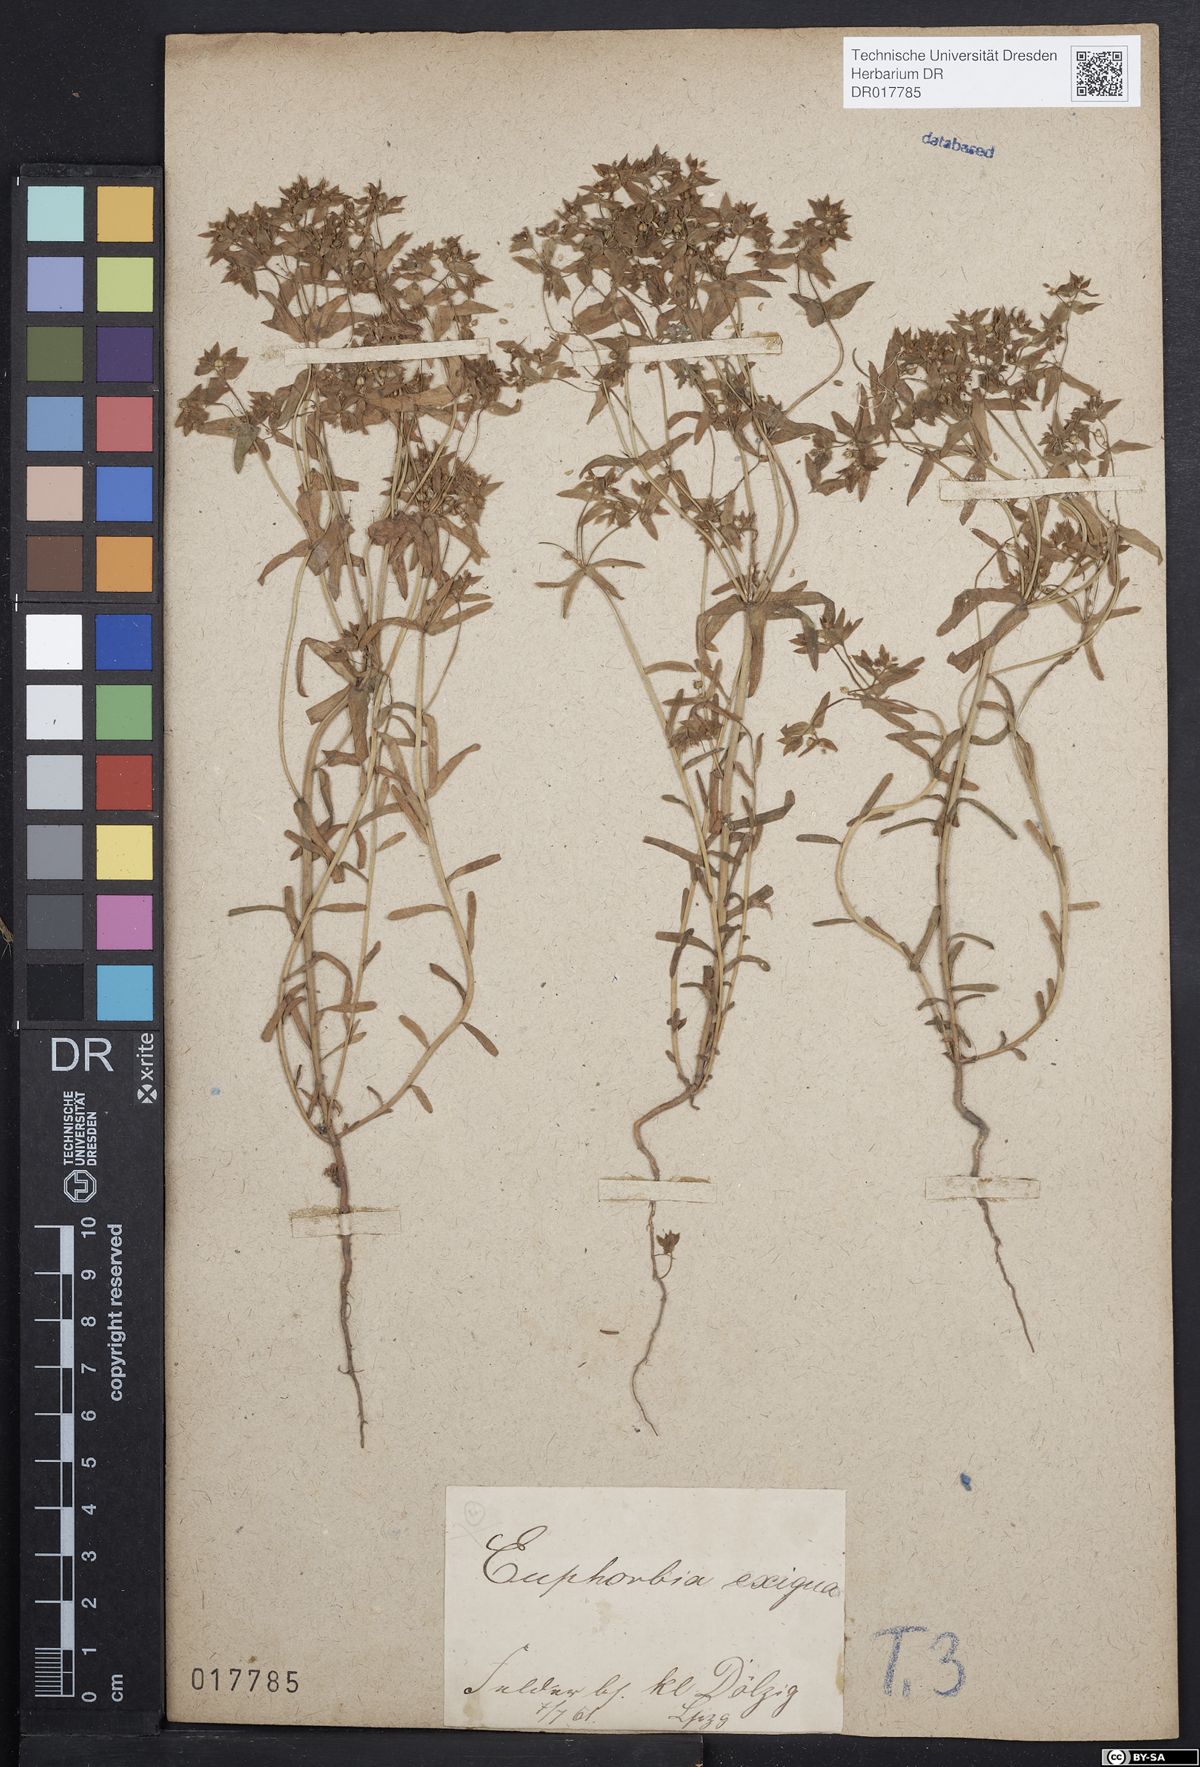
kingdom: Plantae
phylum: Tracheophyta
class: Magnoliopsida
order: Malpighiales
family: Euphorbiaceae
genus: Euphorbia
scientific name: Euphorbia exigua
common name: Dwarf spurge
